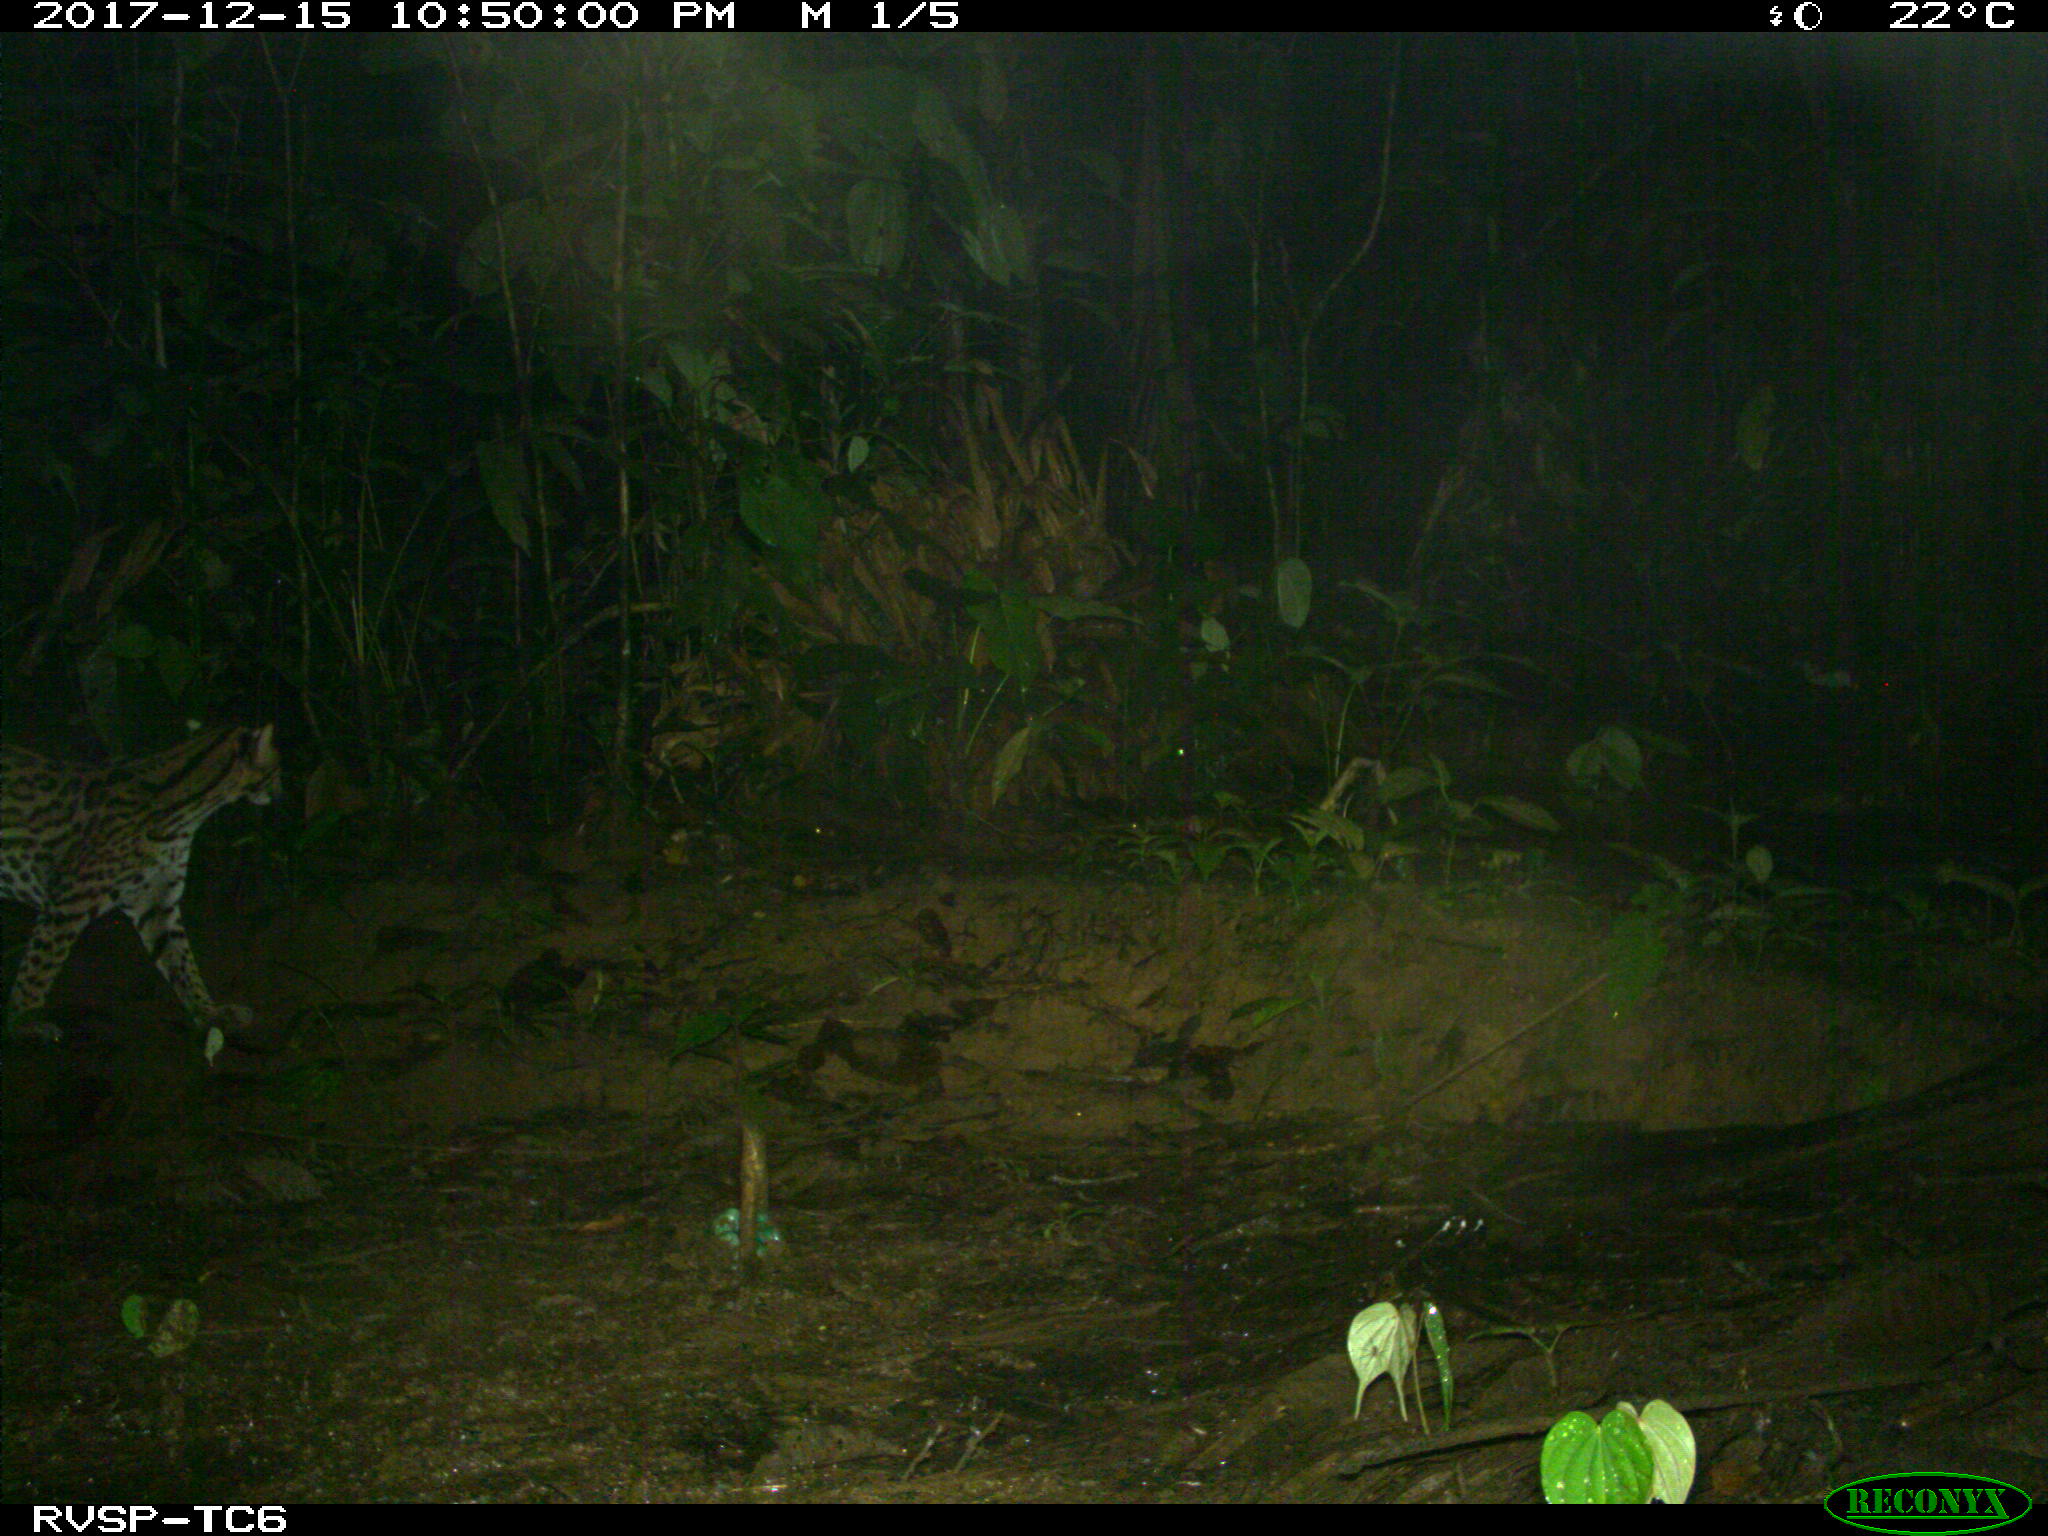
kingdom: Animalia
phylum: Chordata
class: Mammalia
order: Carnivora
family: Felidae
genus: Leopardus
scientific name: Leopardus pardalis
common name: Ocelot
